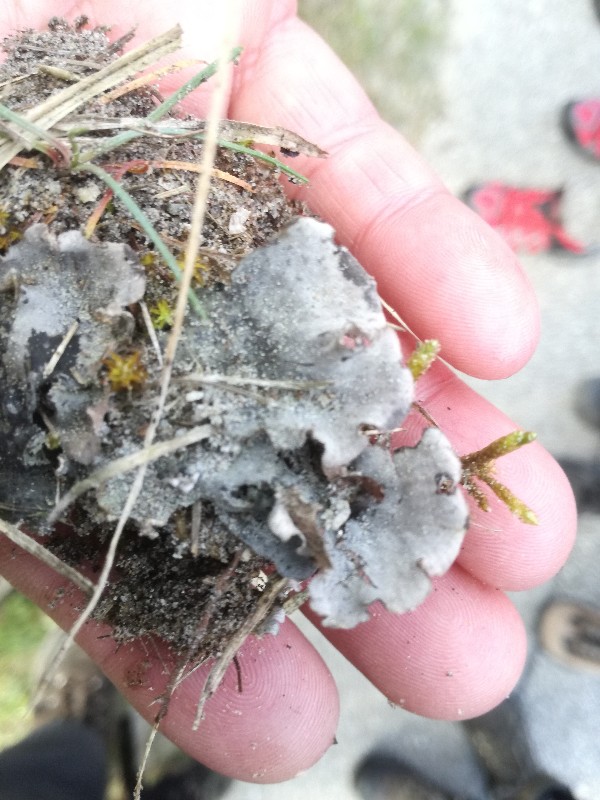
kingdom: Fungi
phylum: Ascomycota
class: Lecanoromycetes
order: Peltigerales
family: Peltigeraceae
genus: Peltigera
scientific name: Peltigera canina
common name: hunde-skjoldlav
